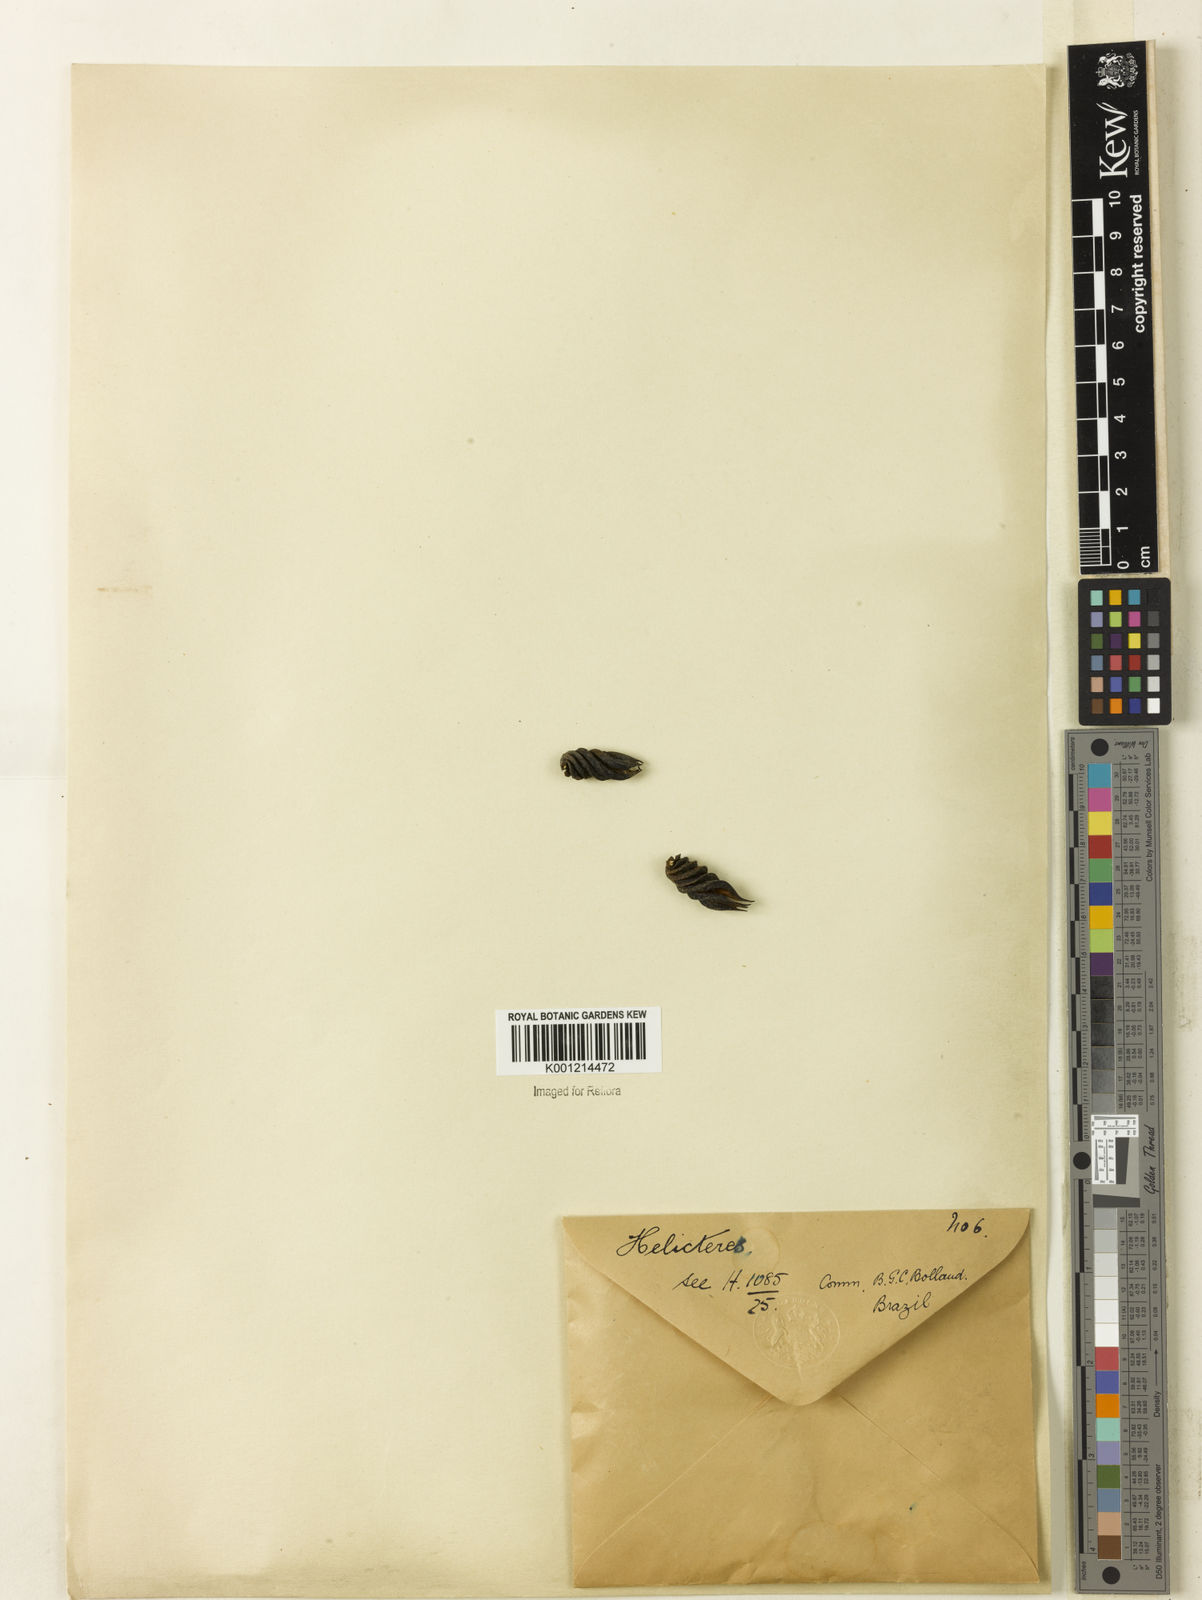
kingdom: Plantae
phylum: Tracheophyta
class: Magnoliopsida
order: Malvales
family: Malvaceae
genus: Helicteres
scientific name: Helicteres
